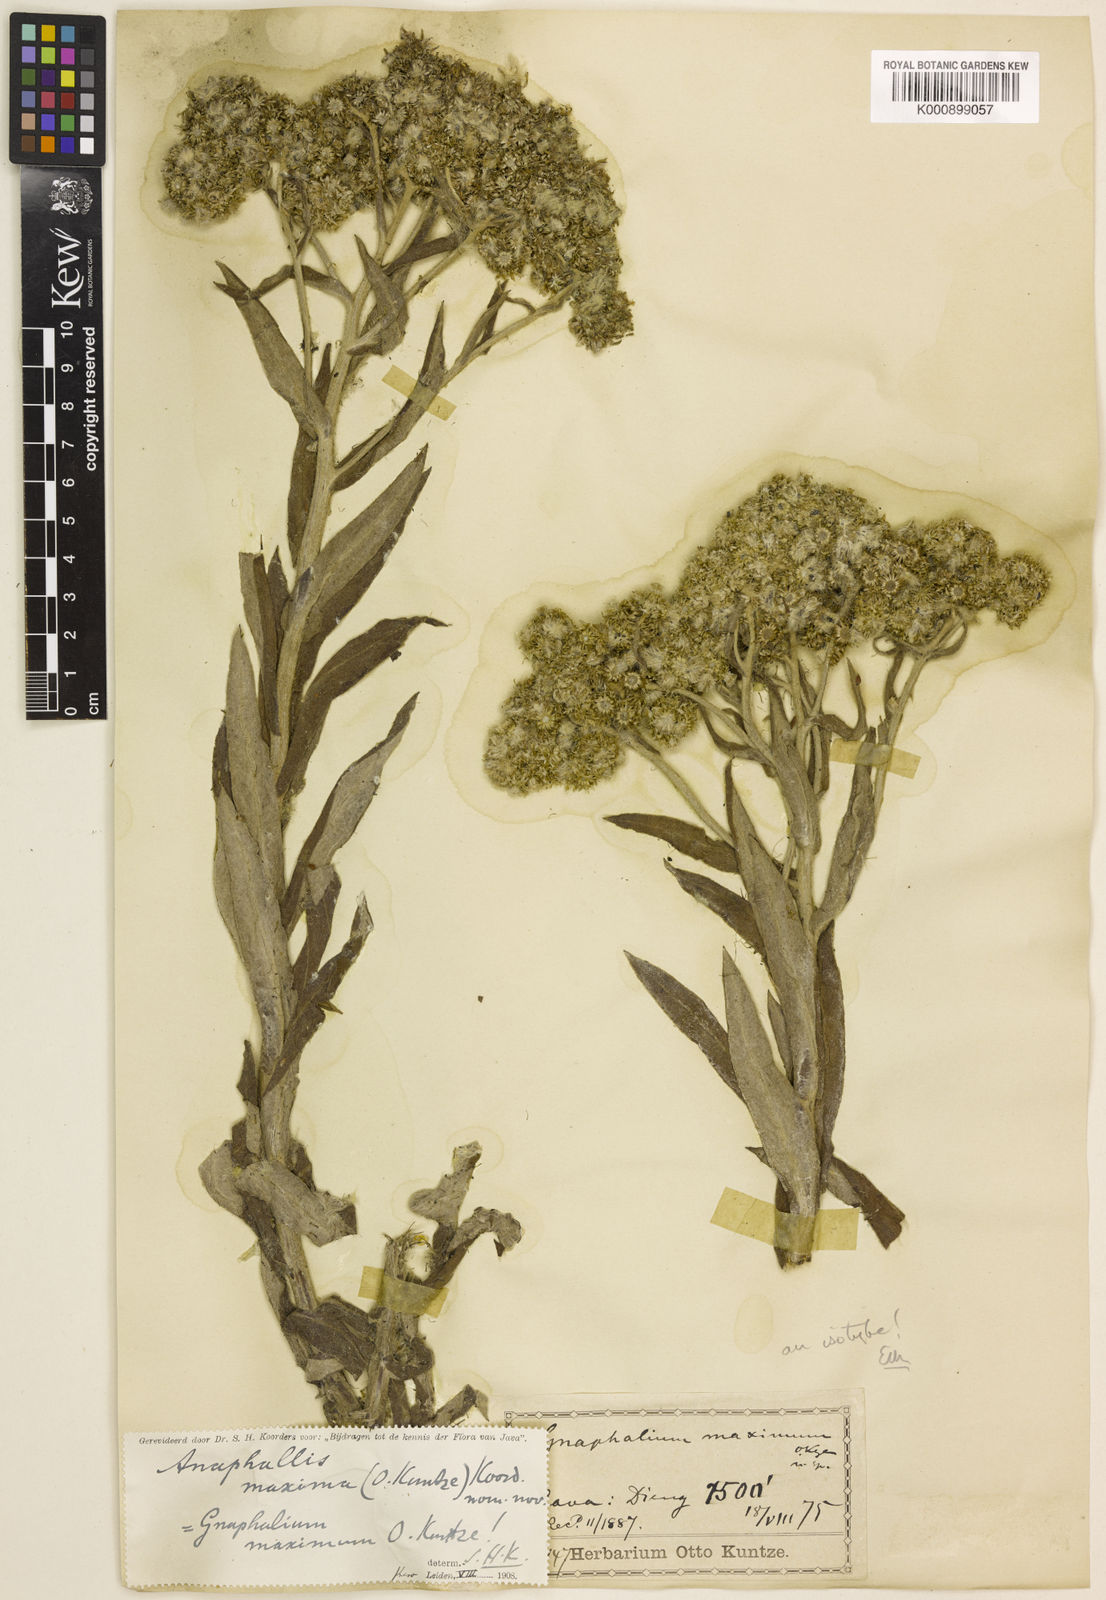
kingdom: Plantae
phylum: Tracheophyta
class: Magnoliopsida
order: Asterales
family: Asteraceae
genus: Anaphalis
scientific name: Anaphalis
